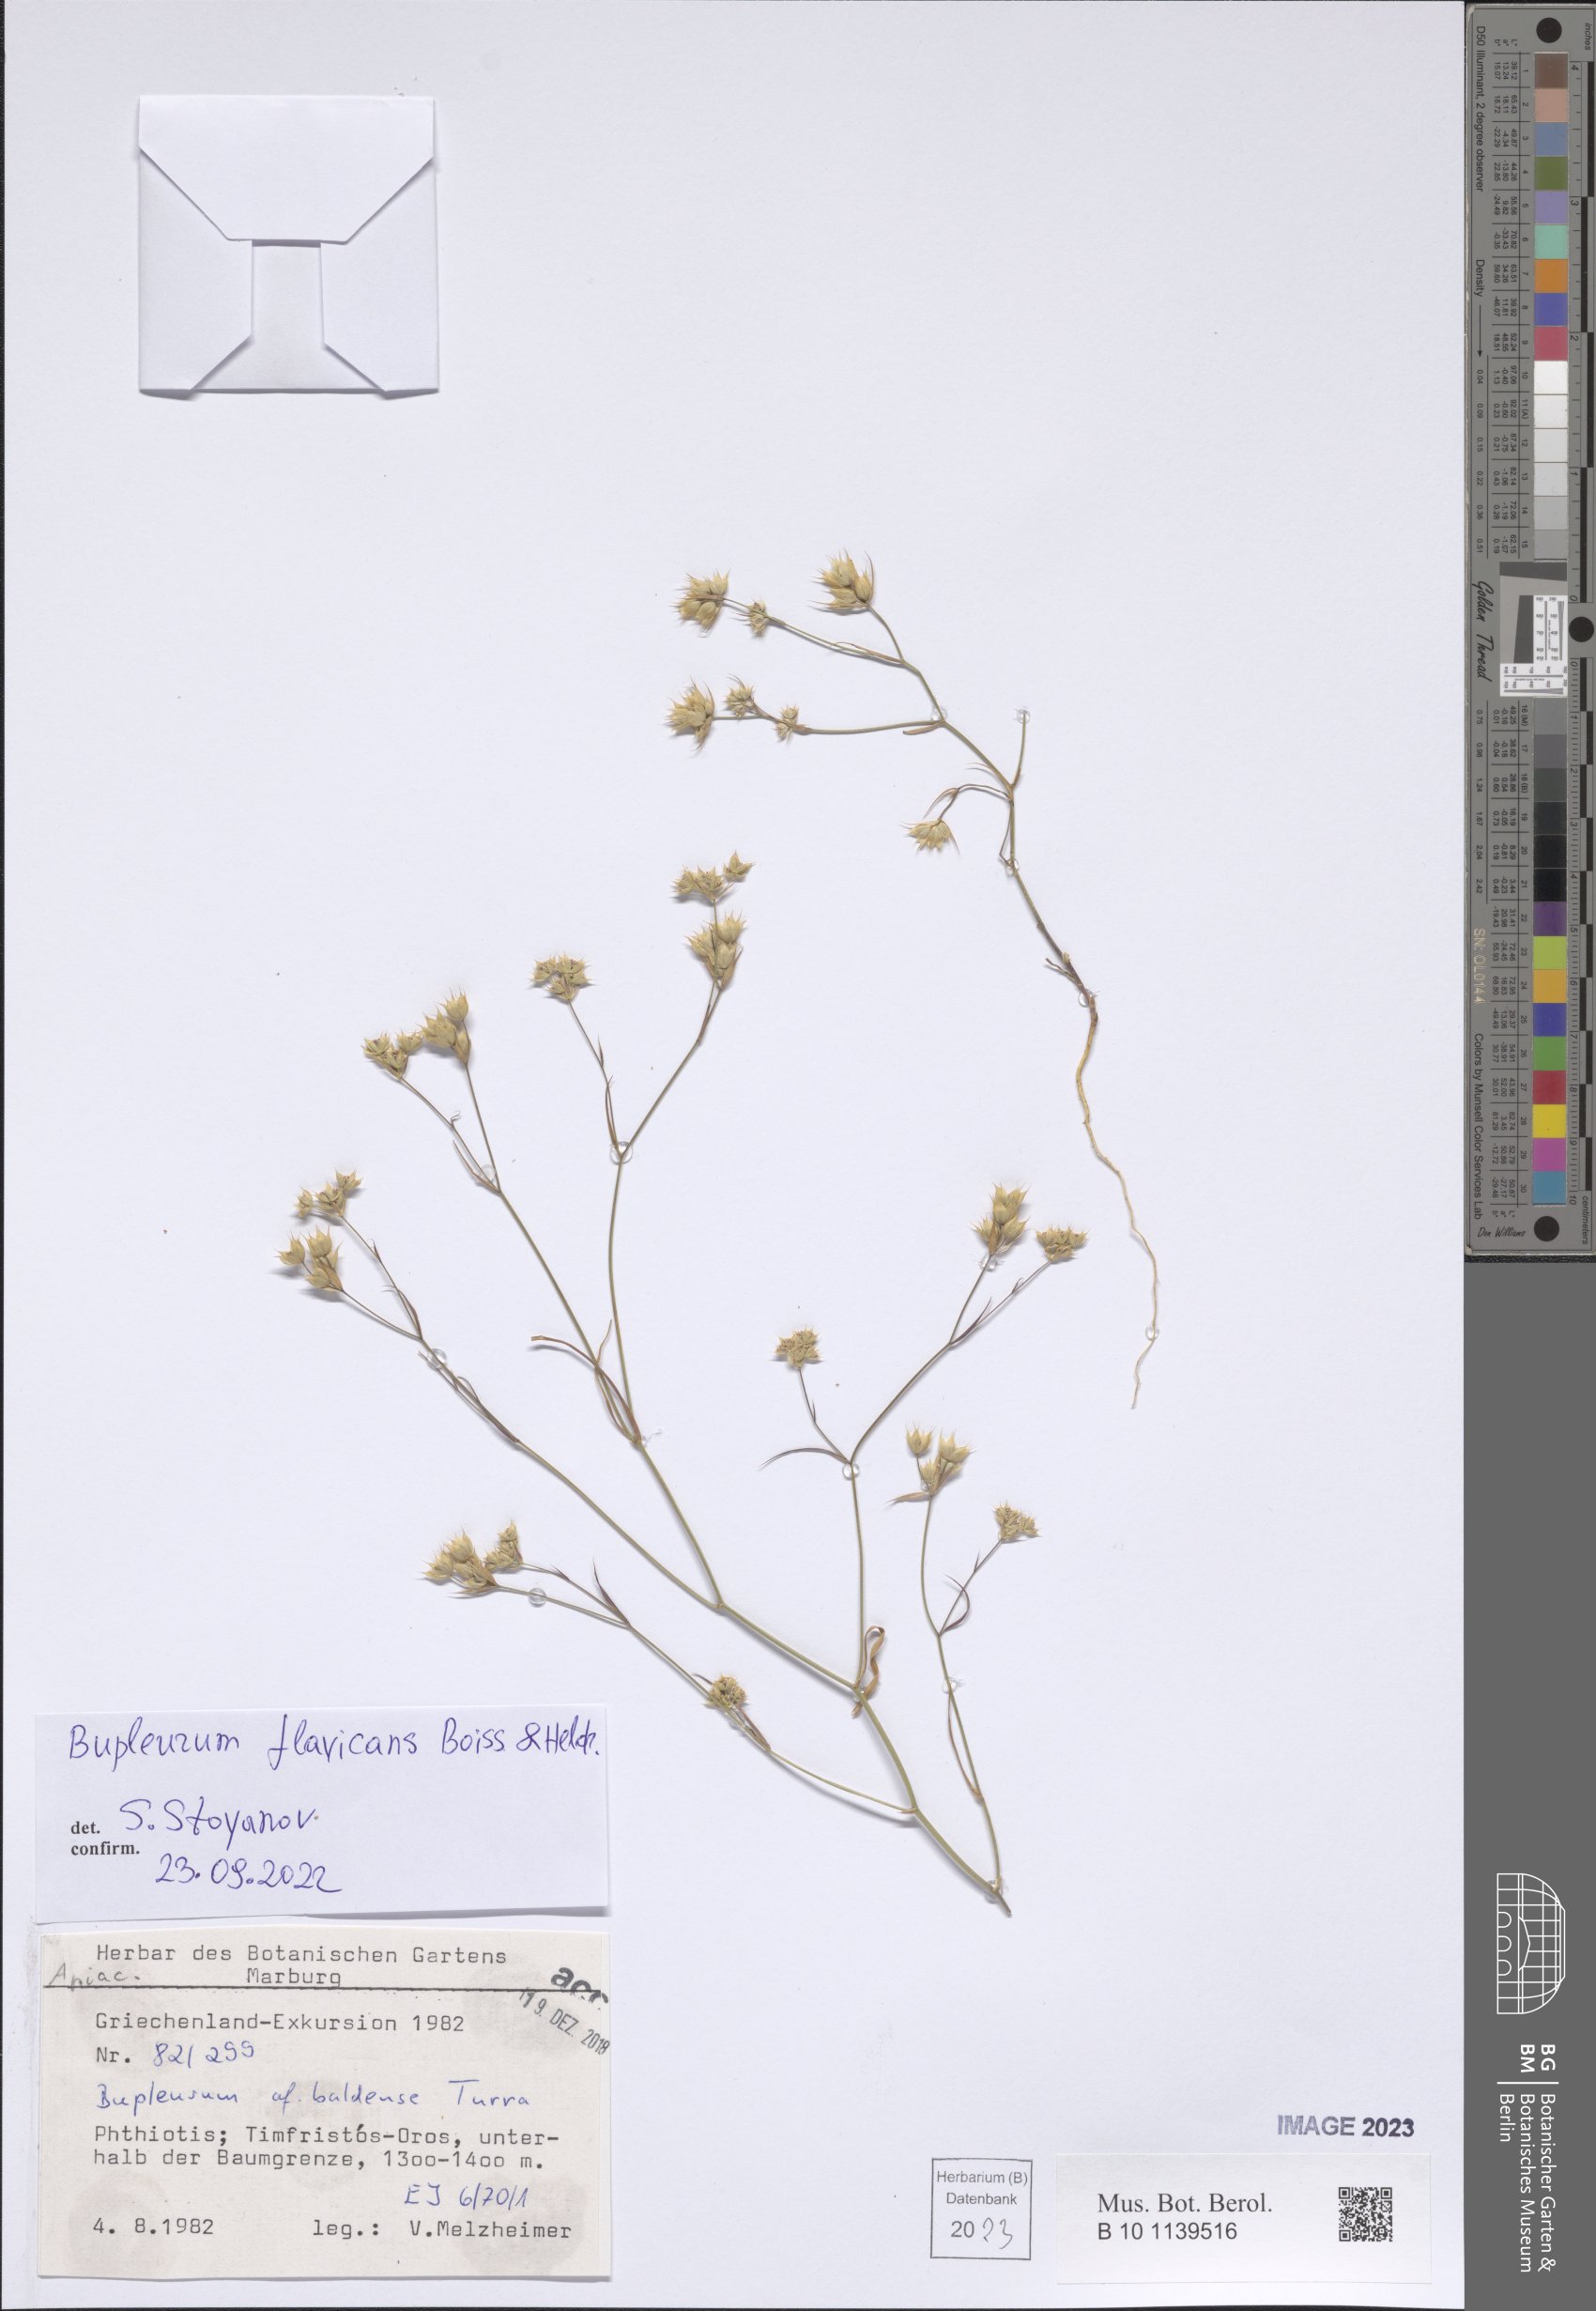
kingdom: Plantae
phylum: Tracheophyta
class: Magnoliopsida
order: Apiales
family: Apiaceae
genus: Bupleurum
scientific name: Bupleurum flavicans
